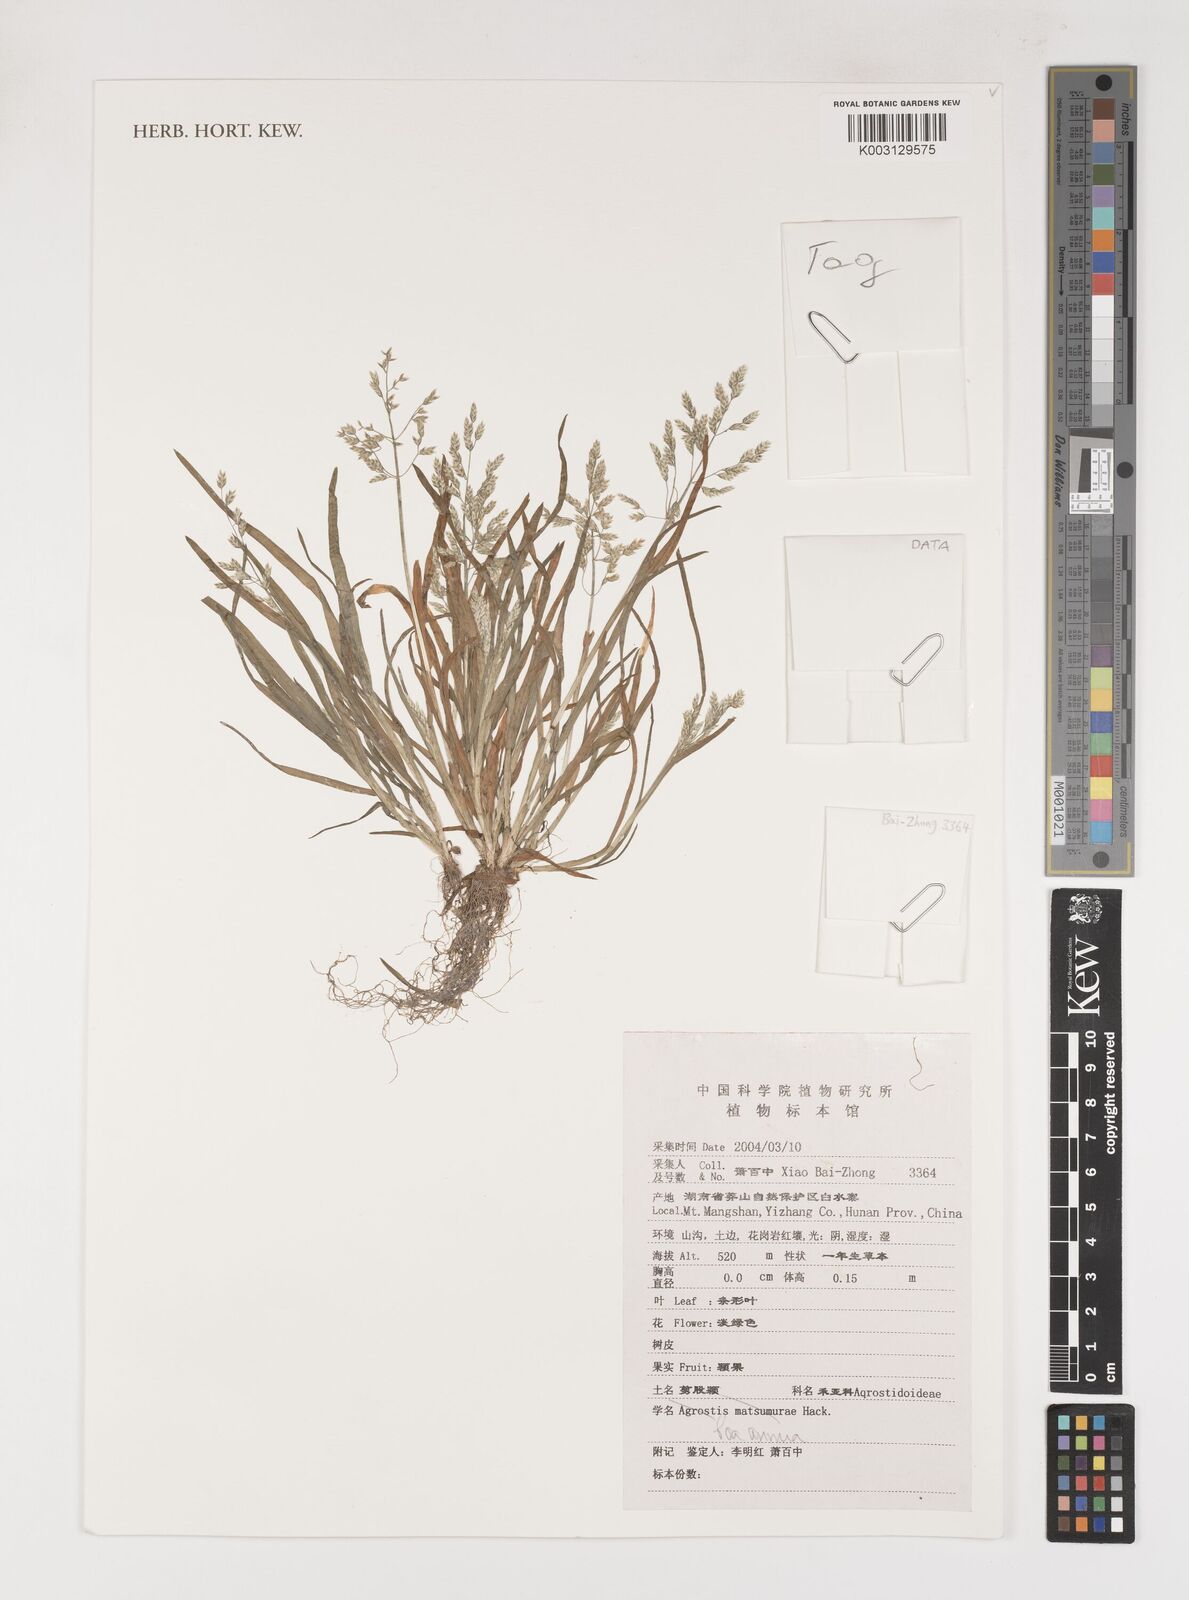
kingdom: Plantae
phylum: Tracheophyta
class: Liliopsida
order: Poales
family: Poaceae
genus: Poa
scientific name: Poa annua
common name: Annual bluegrass
